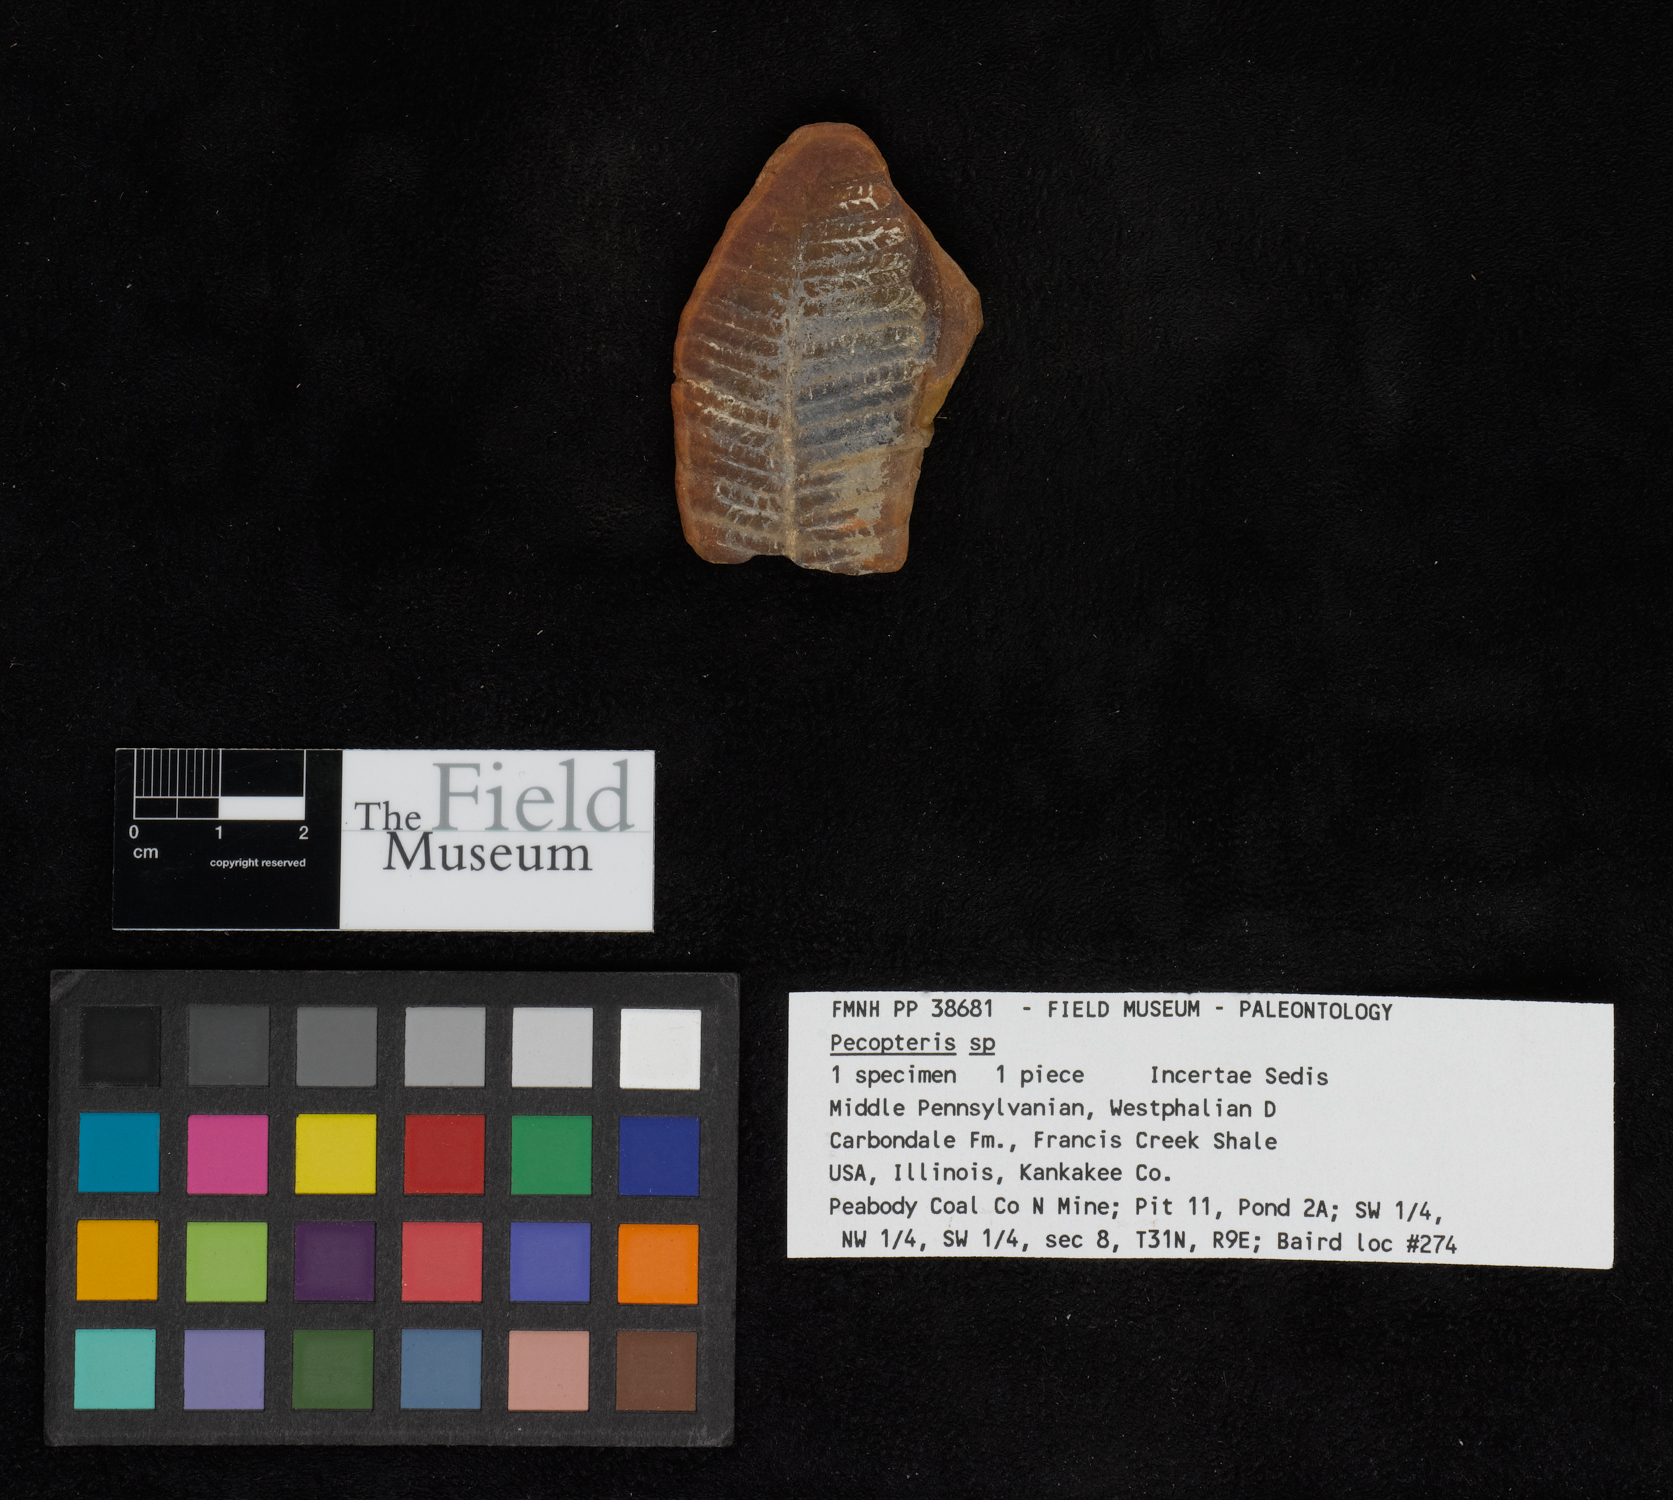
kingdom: Plantae
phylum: Tracheophyta
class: Polypodiopsida
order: Marattiales
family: Asterothecaceae
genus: Pecopteris
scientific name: Pecopteris
